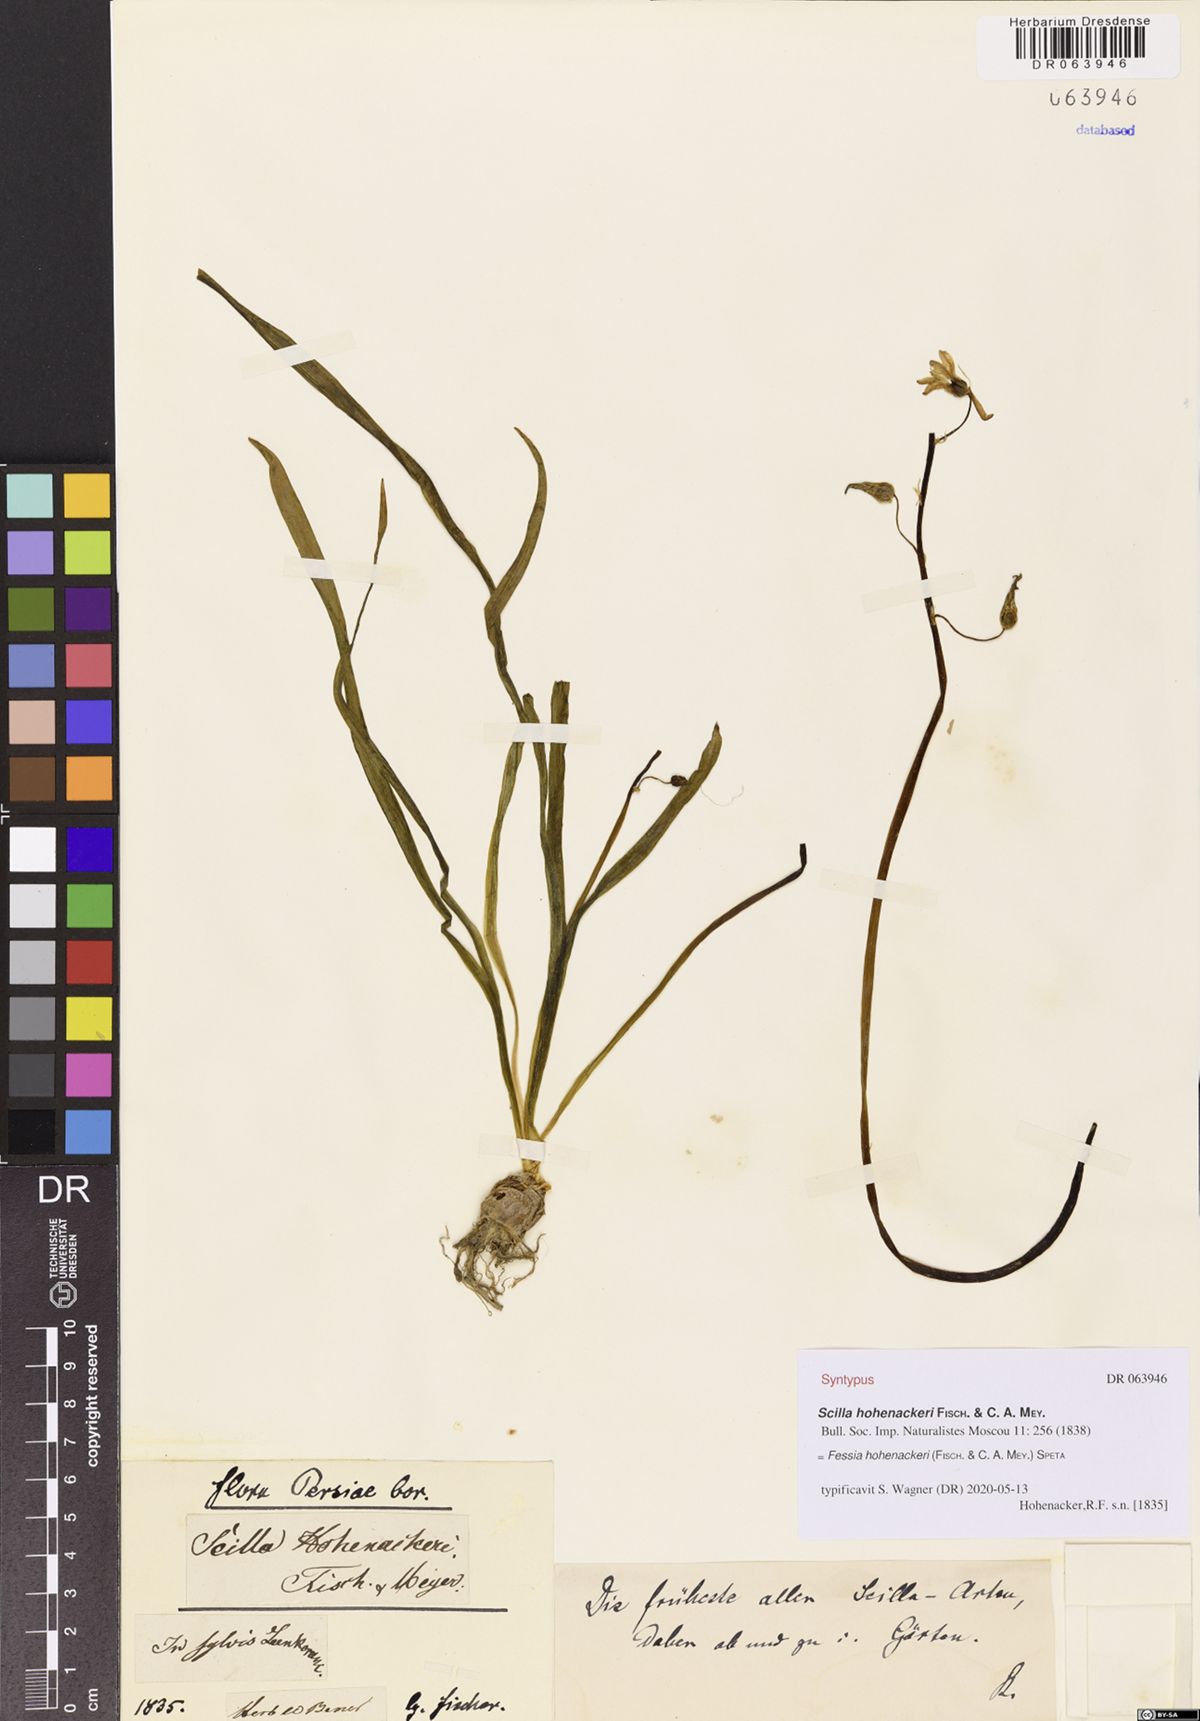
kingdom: Plantae
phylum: Tracheophyta
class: Liliopsida
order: Asparagales
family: Asparagaceae
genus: Fessia
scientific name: Fessia hohenackeri
